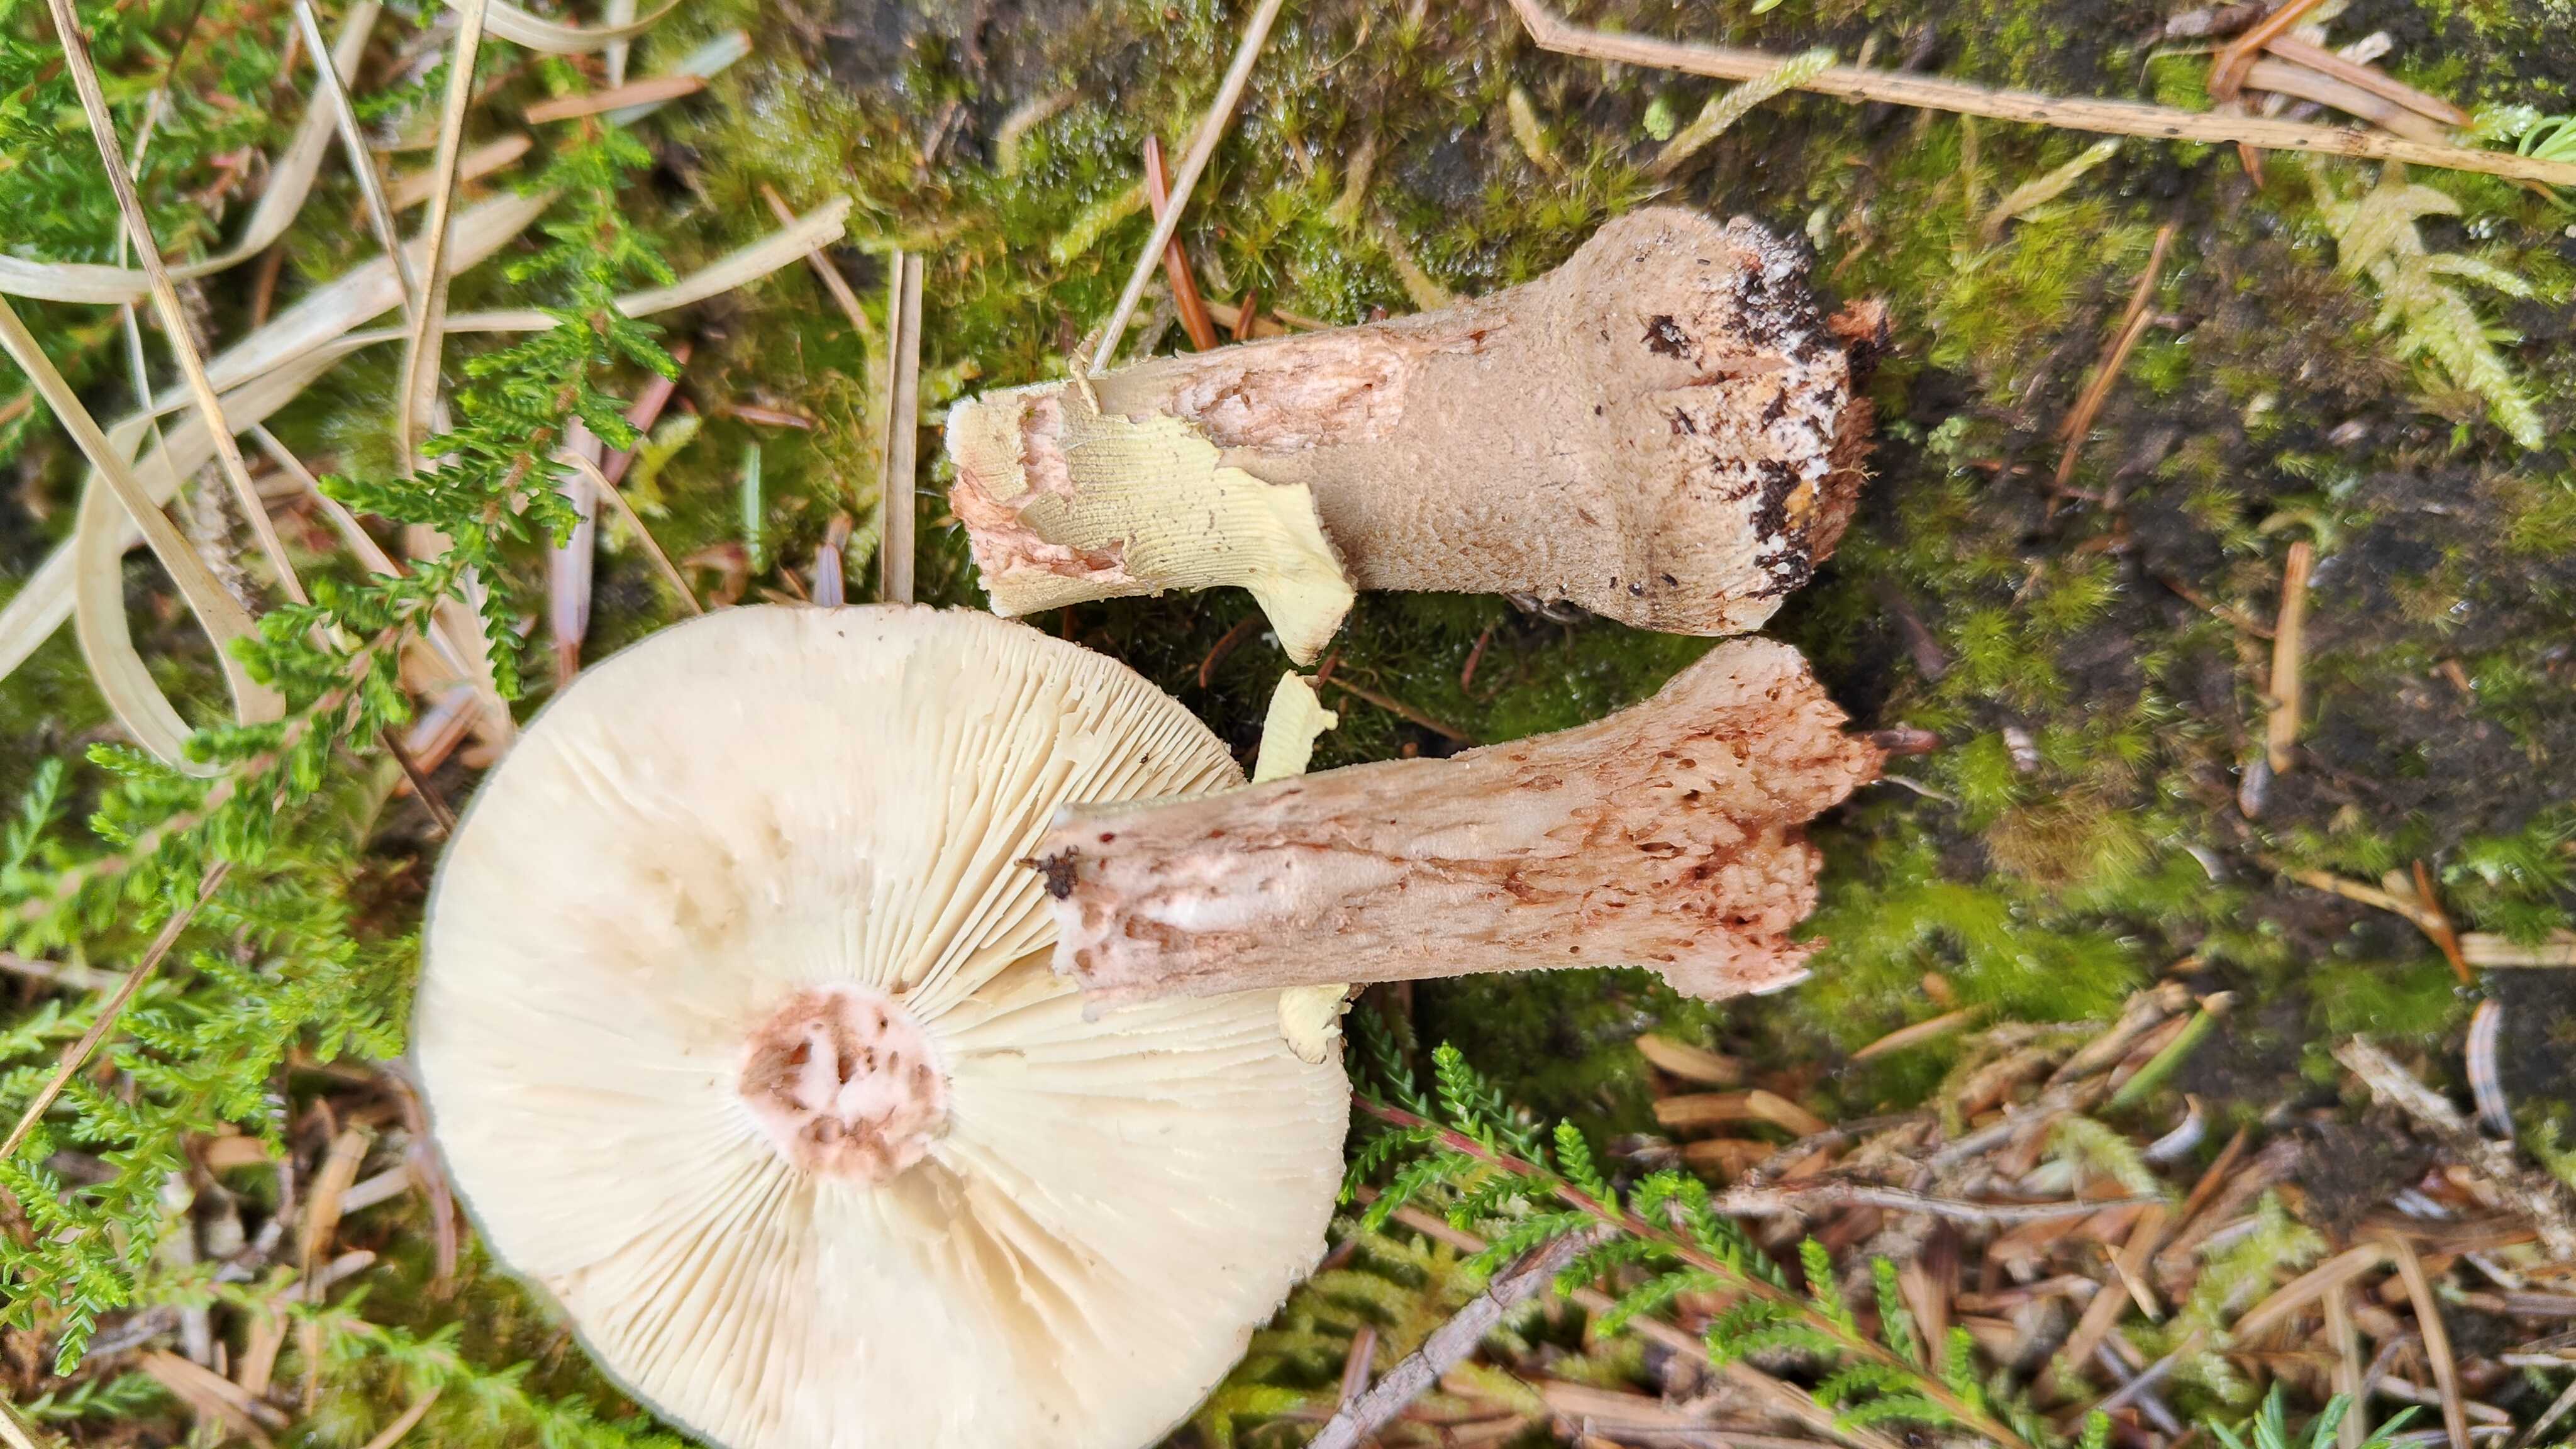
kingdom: Fungi
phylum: Basidiomycota
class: Agaricomycetes
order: Agaricales
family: Amanitaceae
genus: Amanita
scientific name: Amanita rubescens
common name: rødmende fluesvamp
